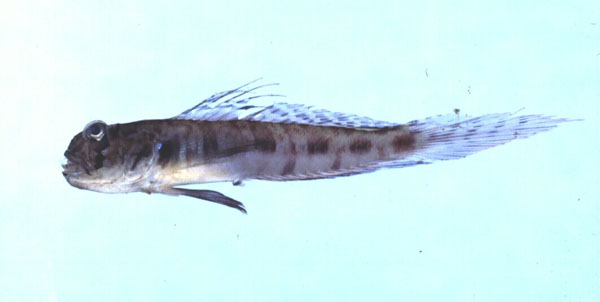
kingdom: Animalia
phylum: Chordata
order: Perciformes
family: Gobiidae
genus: Oxyurichthys
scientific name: Oxyurichthys lonchotus
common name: Speartail mudgoby
